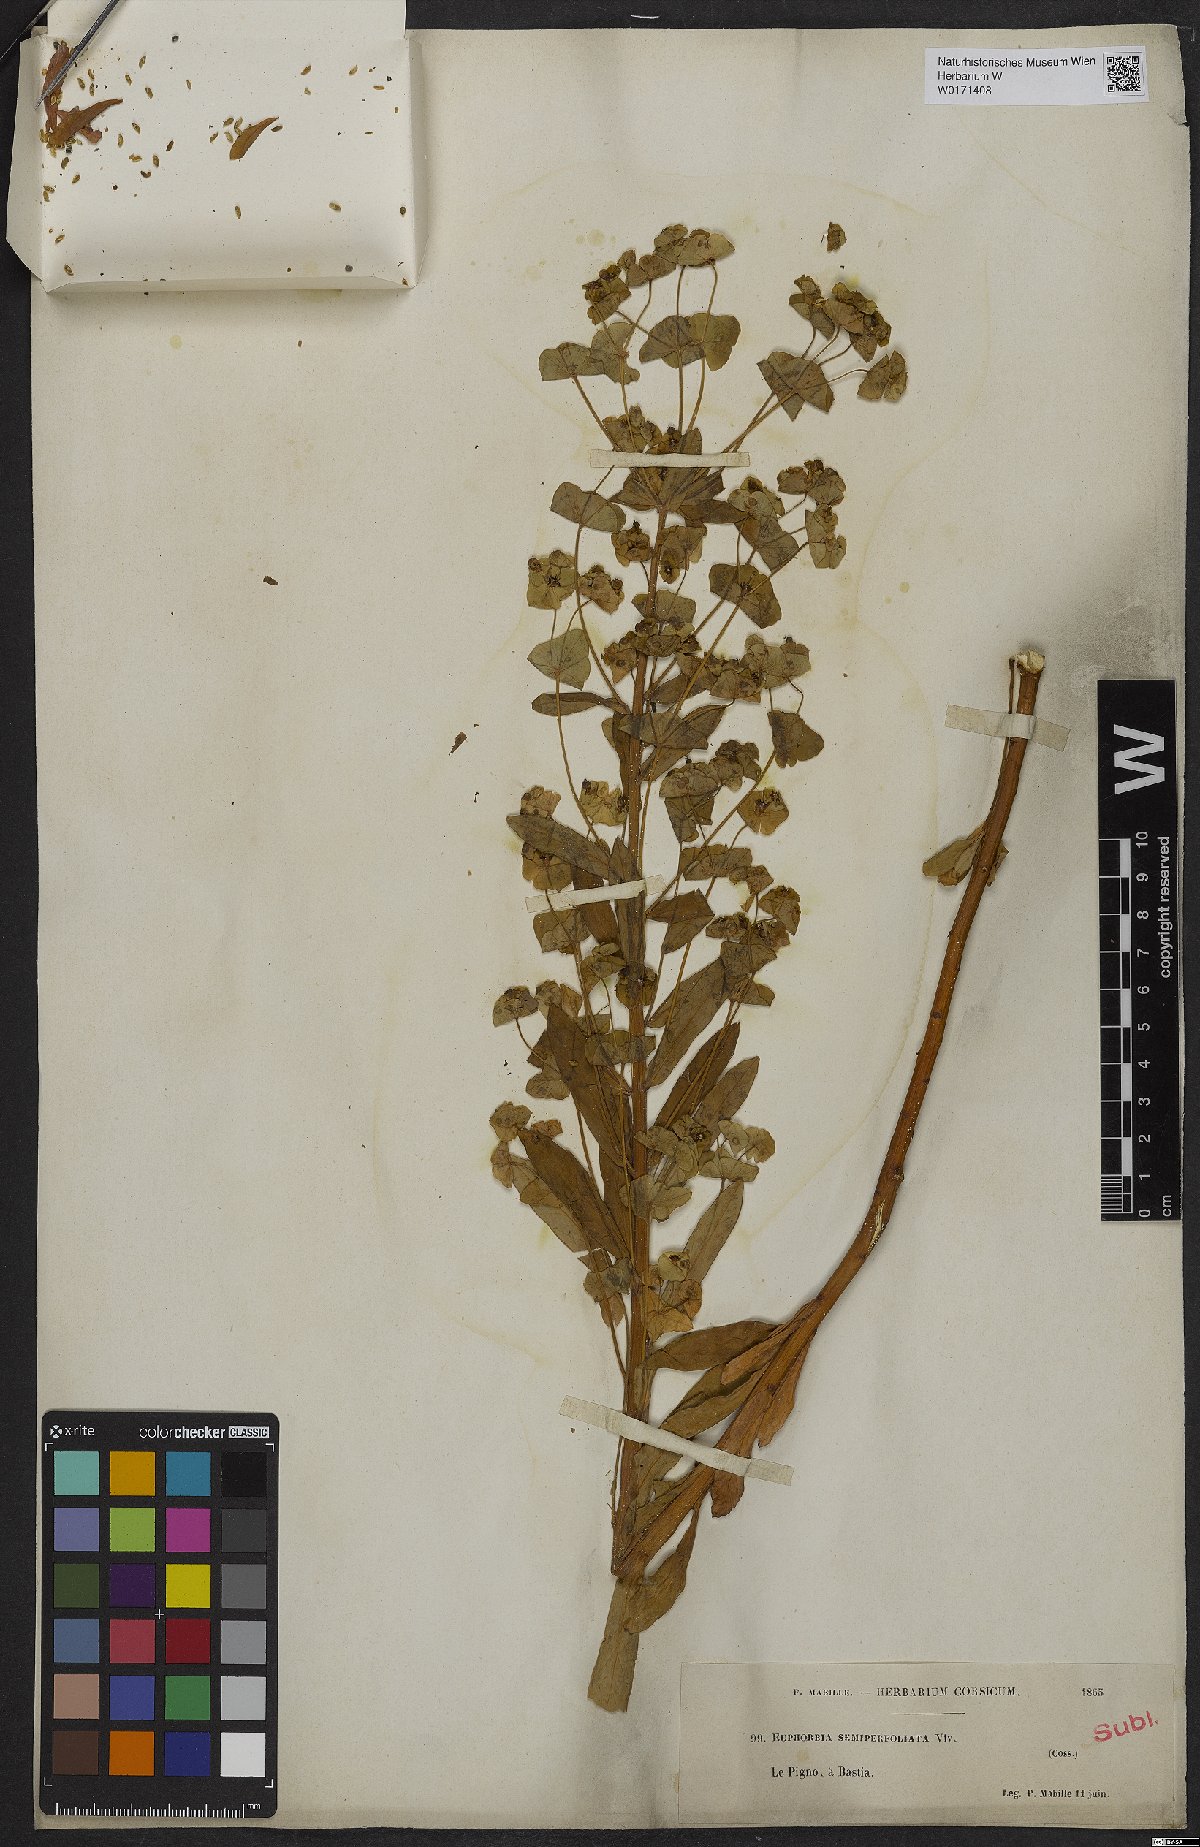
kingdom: Plantae
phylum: Tracheophyta
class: Magnoliopsida
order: Malpighiales
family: Euphorbiaceae
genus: Euphorbia
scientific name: Euphorbia semiperfoliata
